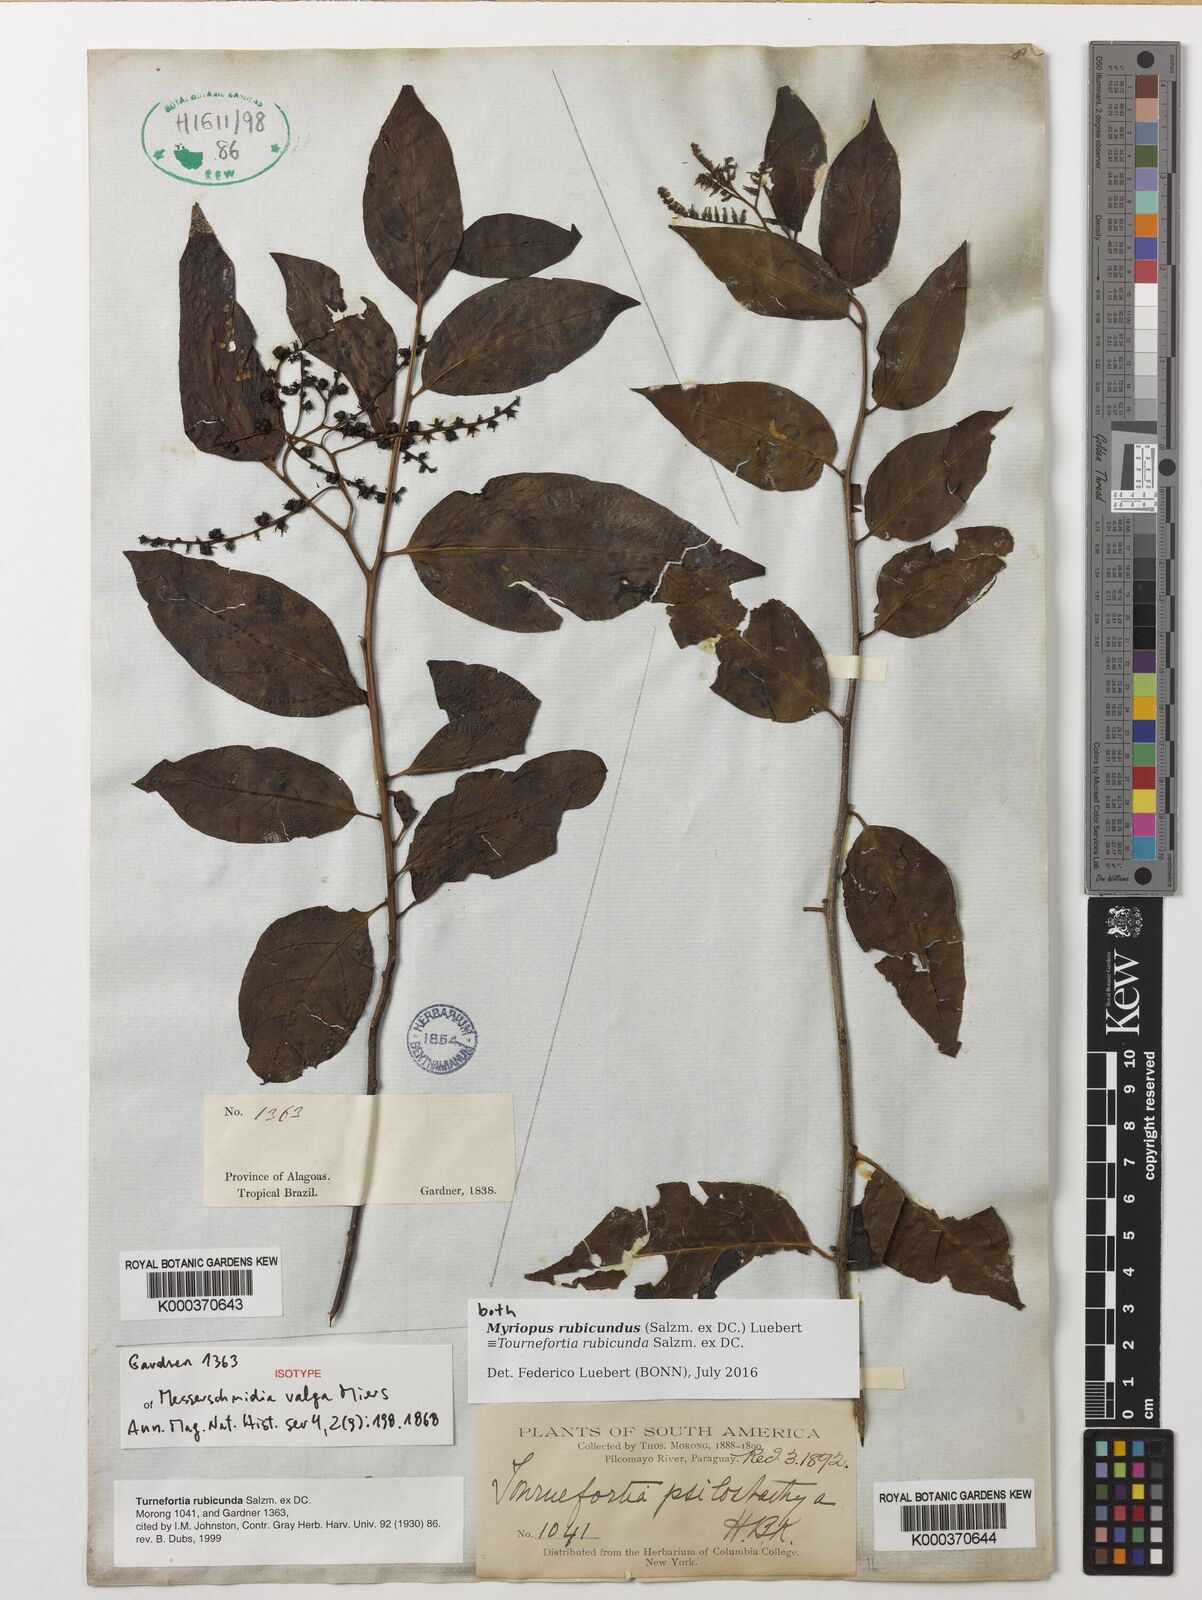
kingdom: Plantae
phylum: Tracheophyta
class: Magnoliopsida
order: Boraginales
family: Heliotropiaceae
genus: Myriopus
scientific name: Myriopus rubicundus
